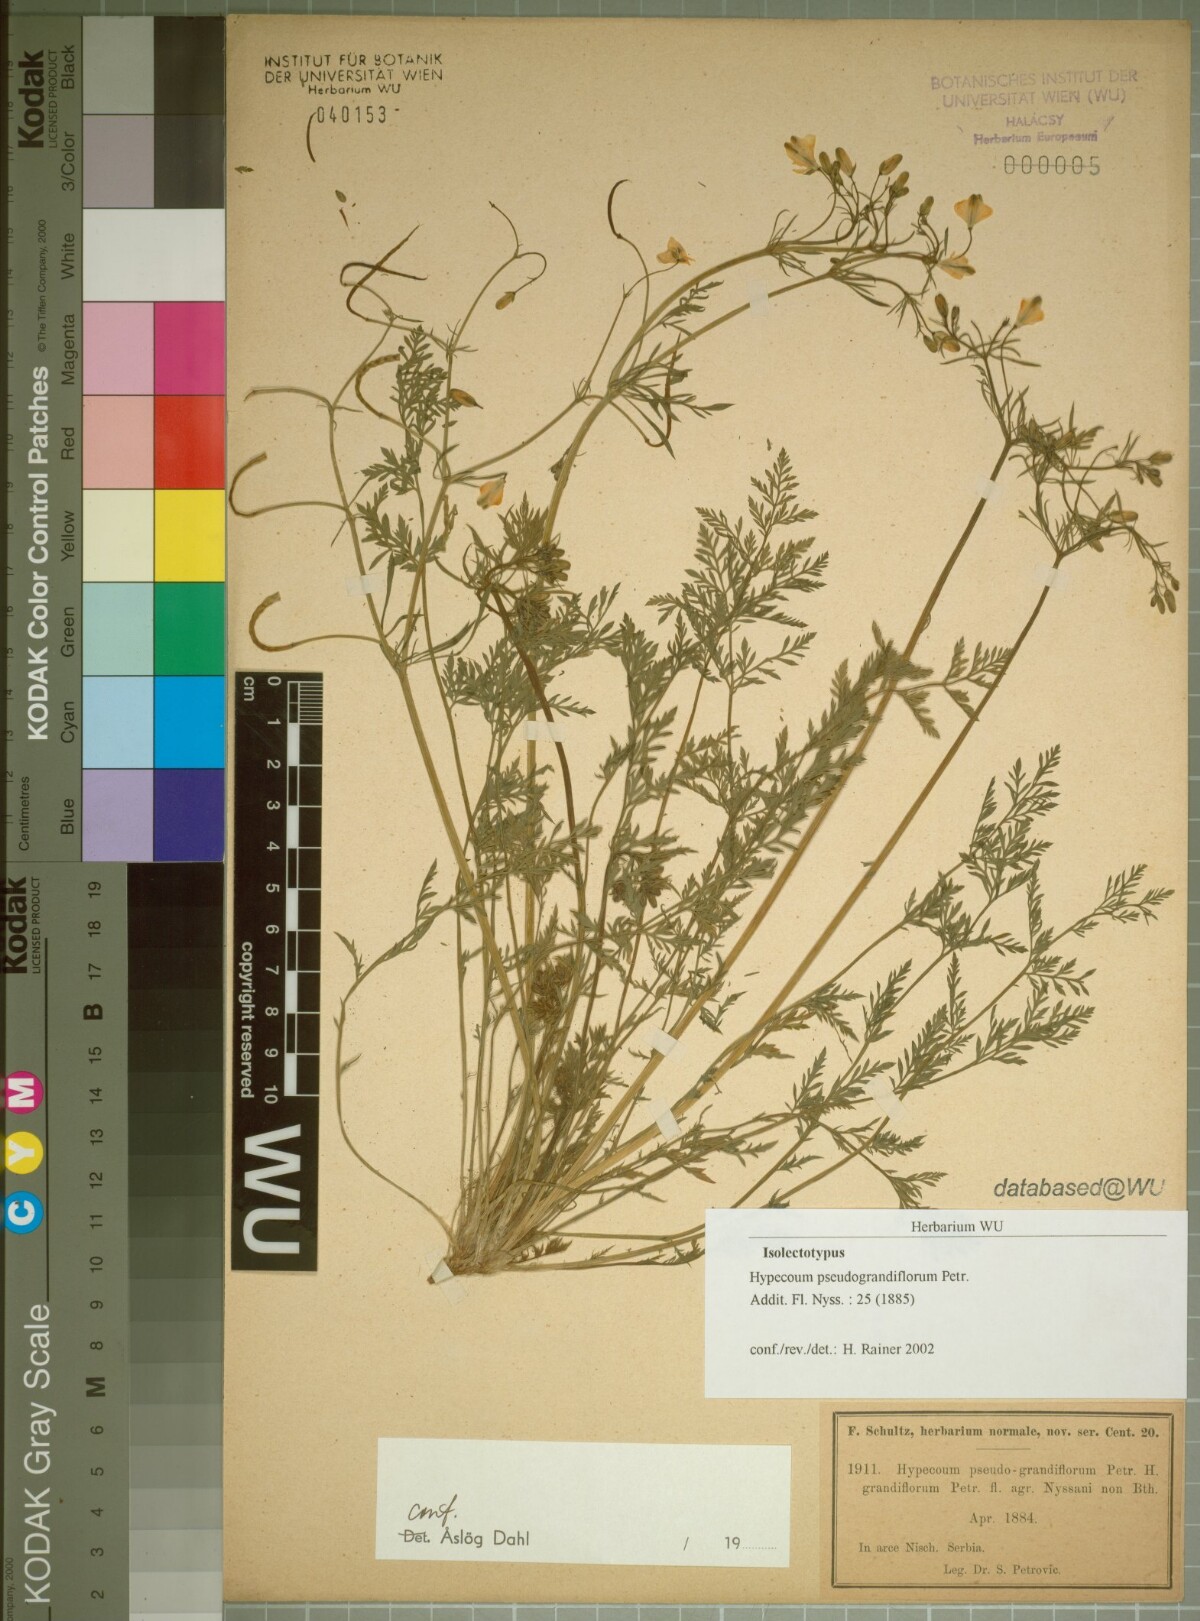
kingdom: Plantae
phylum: Tracheophyta
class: Magnoliopsida
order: Ranunculales
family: Papaveraceae
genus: Hypecoum
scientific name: Hypecoum pseudograndiflorum
